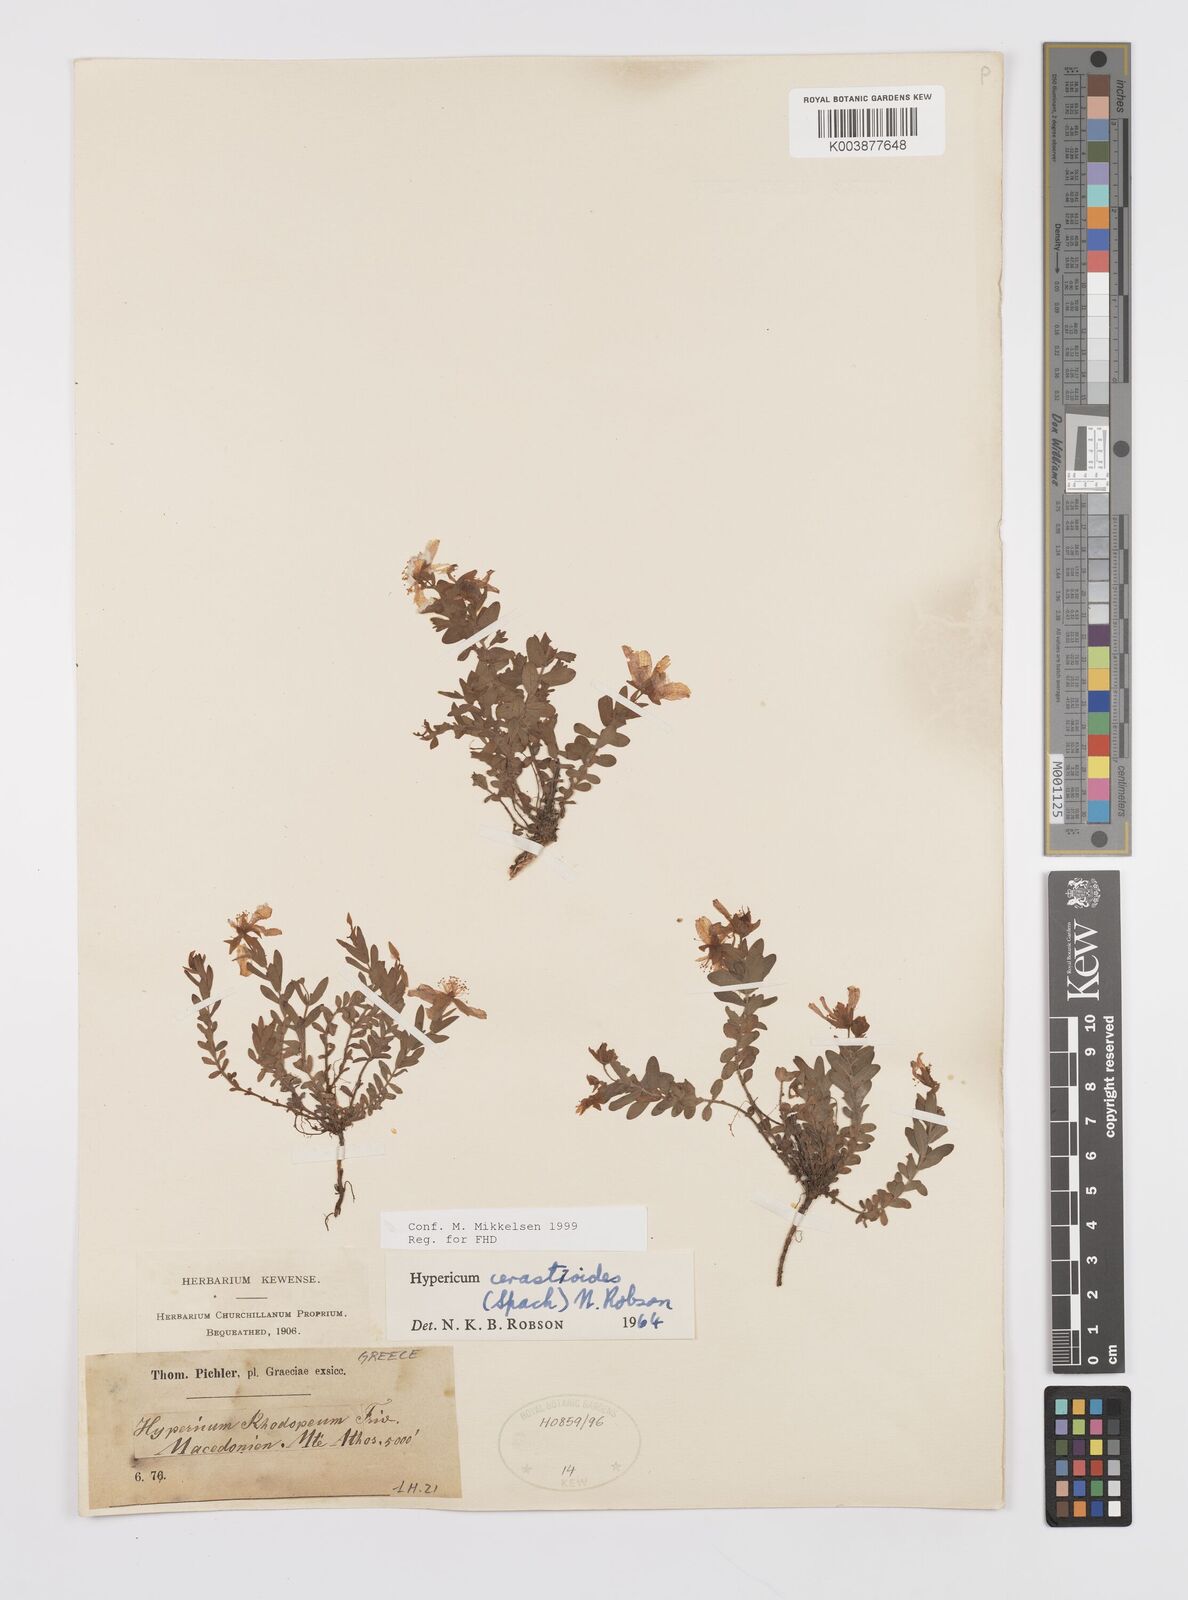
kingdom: Plantae
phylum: Tracheophyta
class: Magnoliopsida
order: Malpighiales
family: Hypericaceae
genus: Hypericum
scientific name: Hypericum cerastoides
